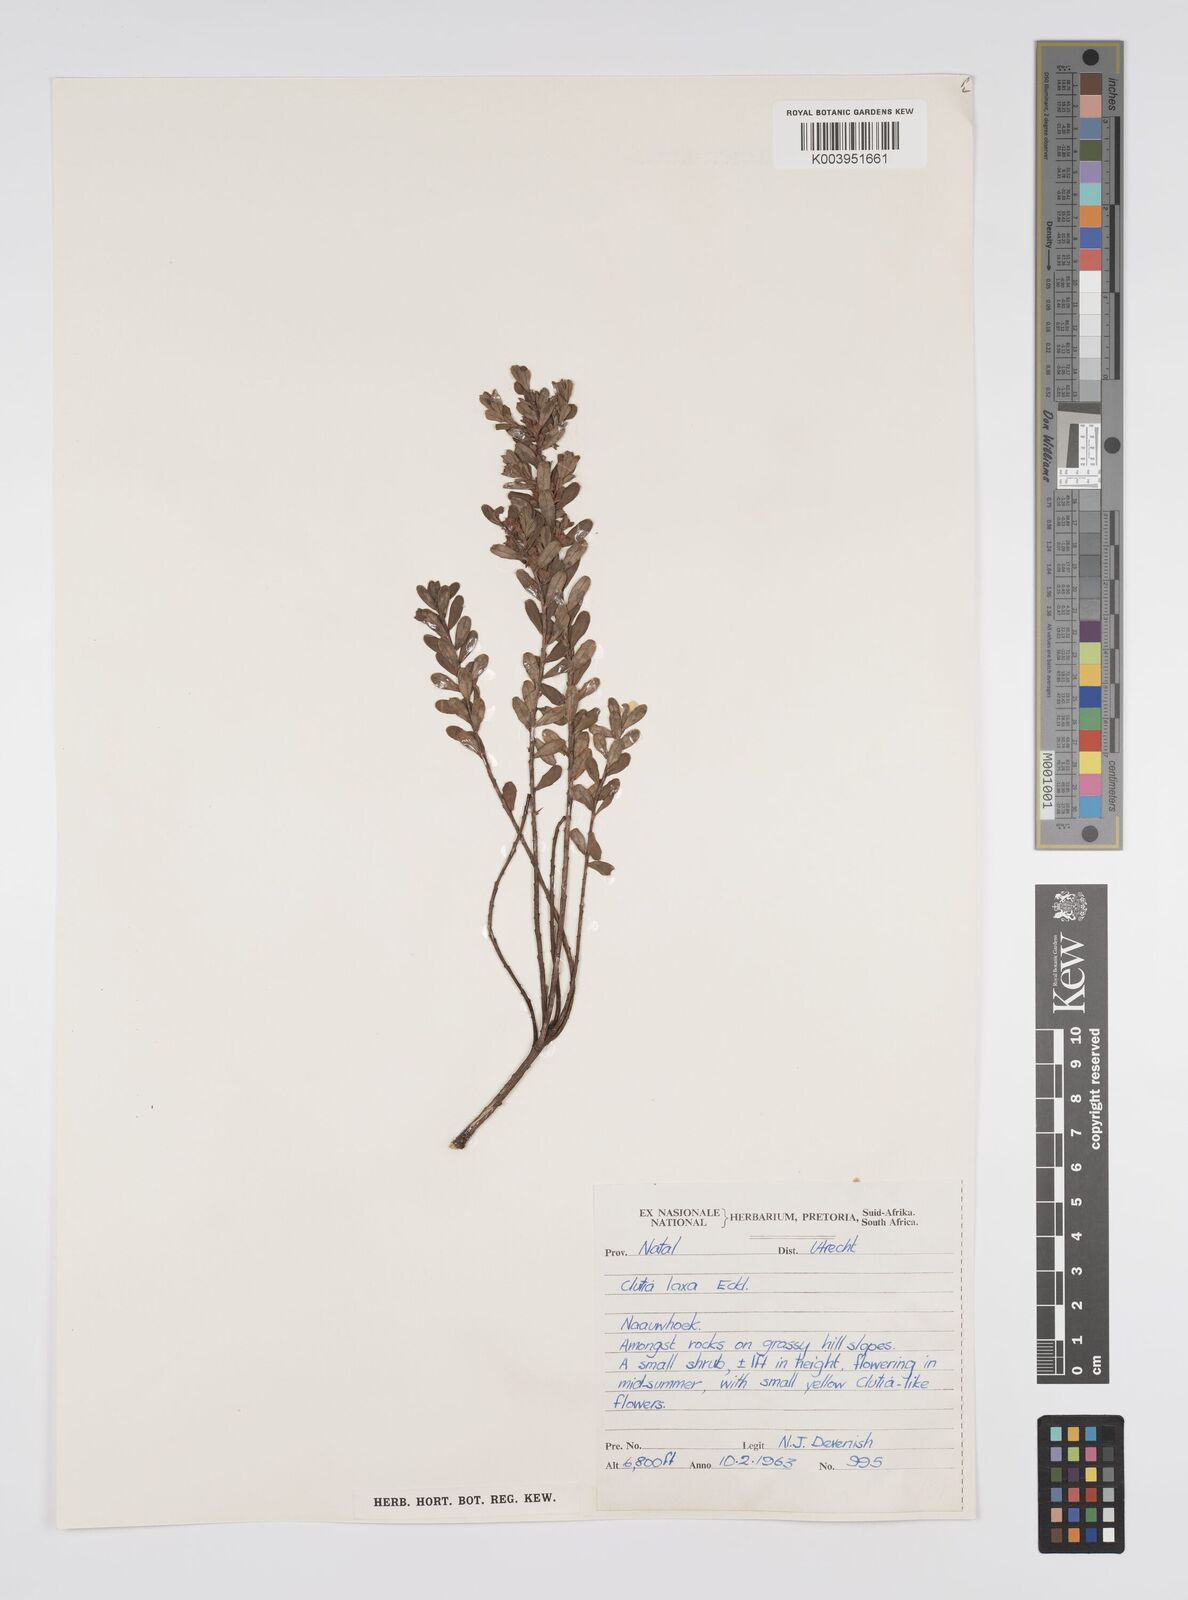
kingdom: Plantae
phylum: Tracheophyta
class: Magnoliopsida
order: Malpighiales
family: Peraceae
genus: Clutia
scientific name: Clutia laxa
